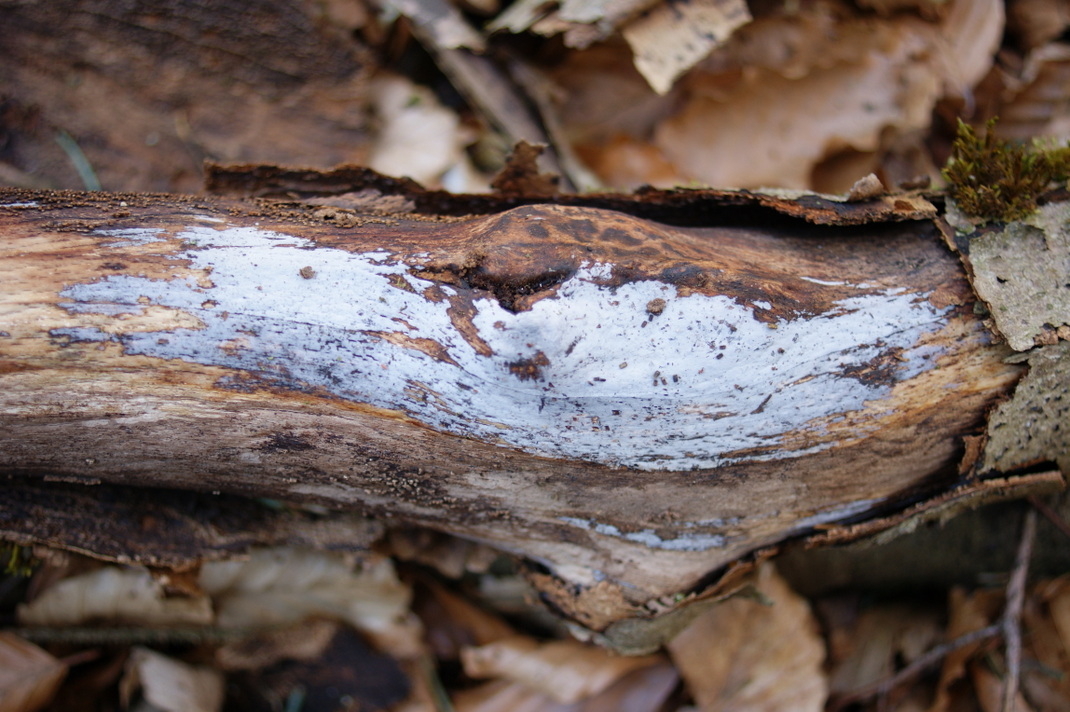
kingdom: Fungi
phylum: Basidiomycota
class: Tremellomycetes
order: Tremellales
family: Exidiaceae
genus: Exidiopsis
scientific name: Exidiopsis effusa
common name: smuk bævrehinde
